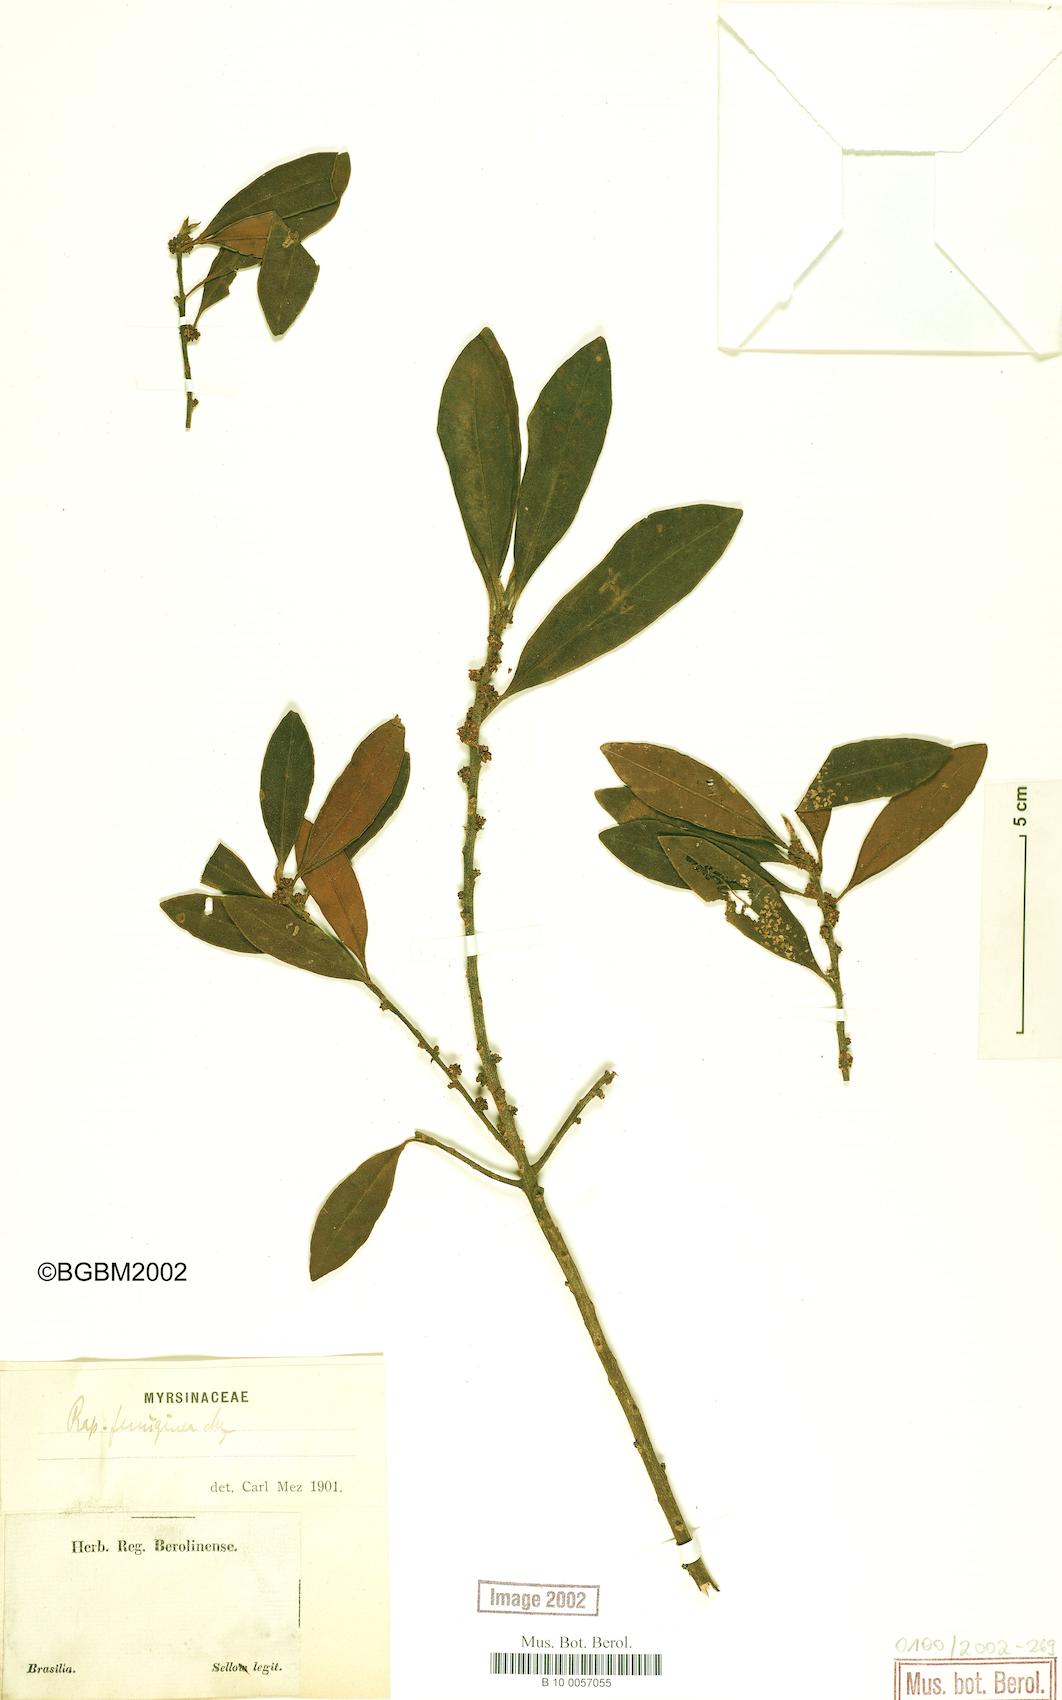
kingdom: Plantae
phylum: Tracheophyta
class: Magnoliopsida
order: Ericales
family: Primulaceae
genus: Myrsine
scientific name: Myrsine coriacea
